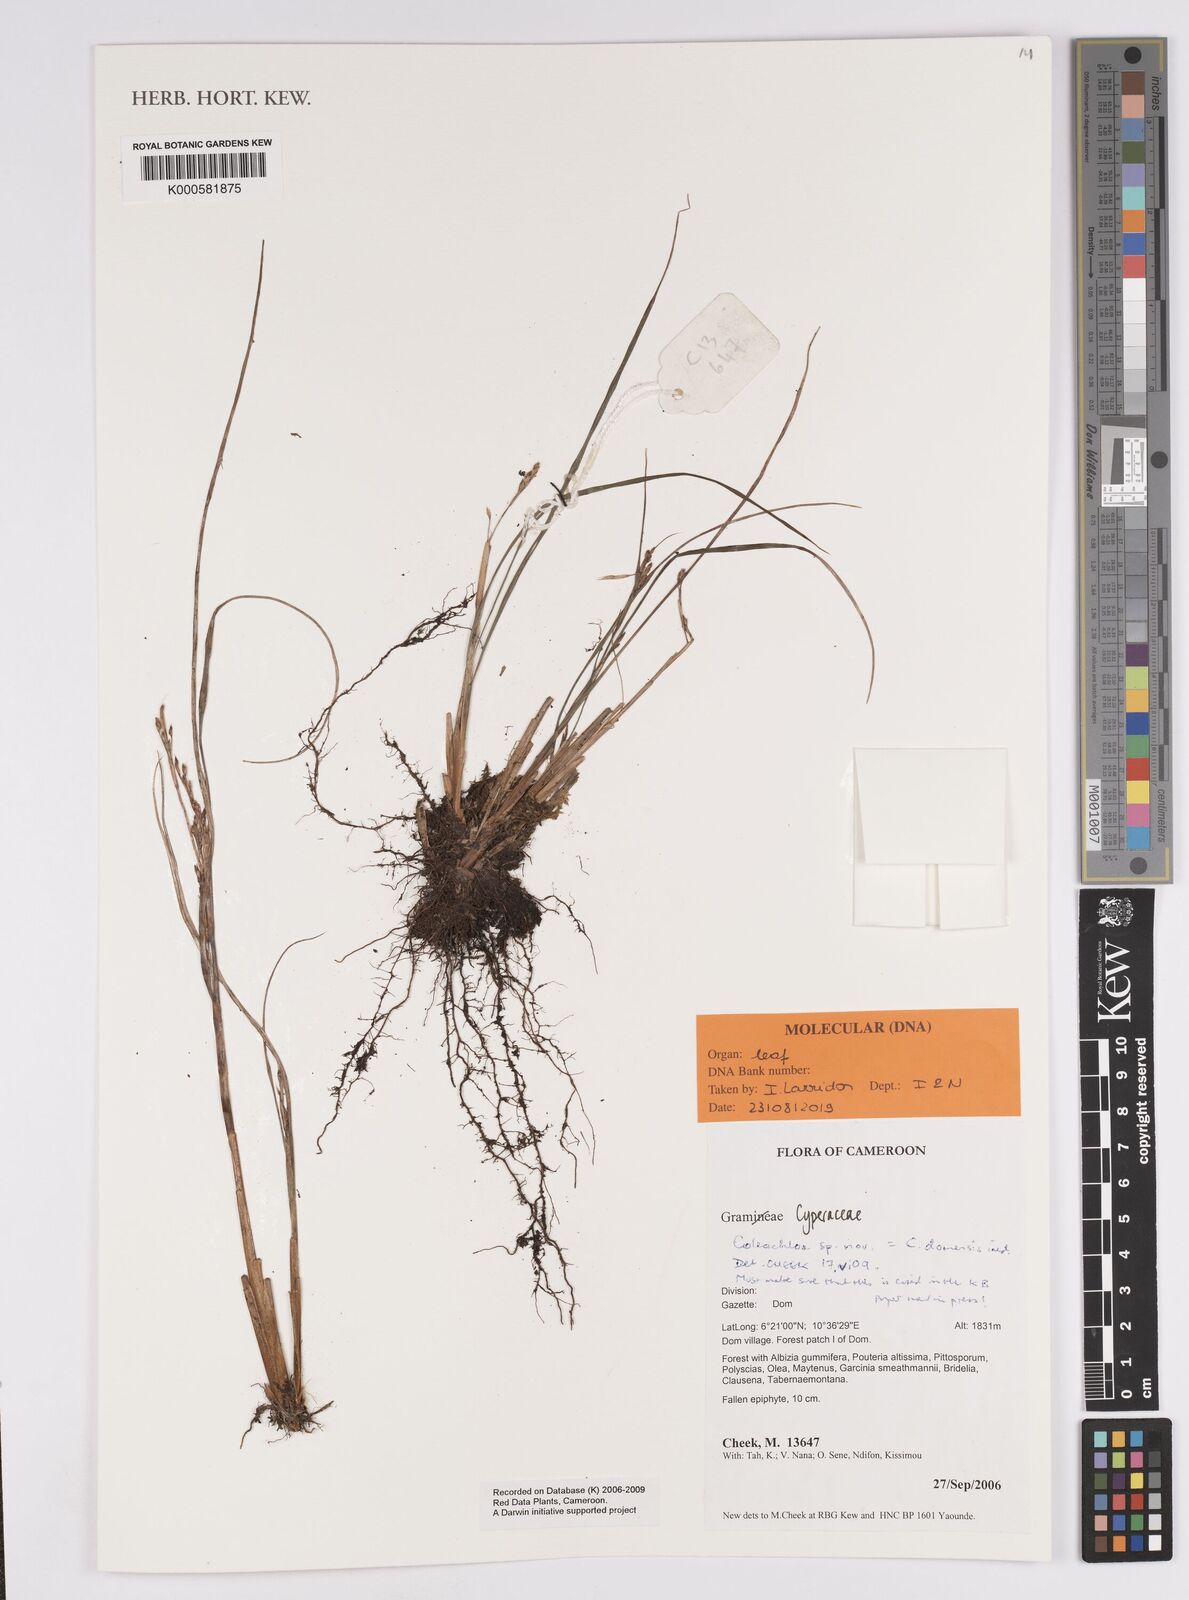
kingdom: Plantae
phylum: Tracheophyta
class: Liliopsida
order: Poales
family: Cyperaceae
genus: Coleochloa
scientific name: Coleochloa domensis
